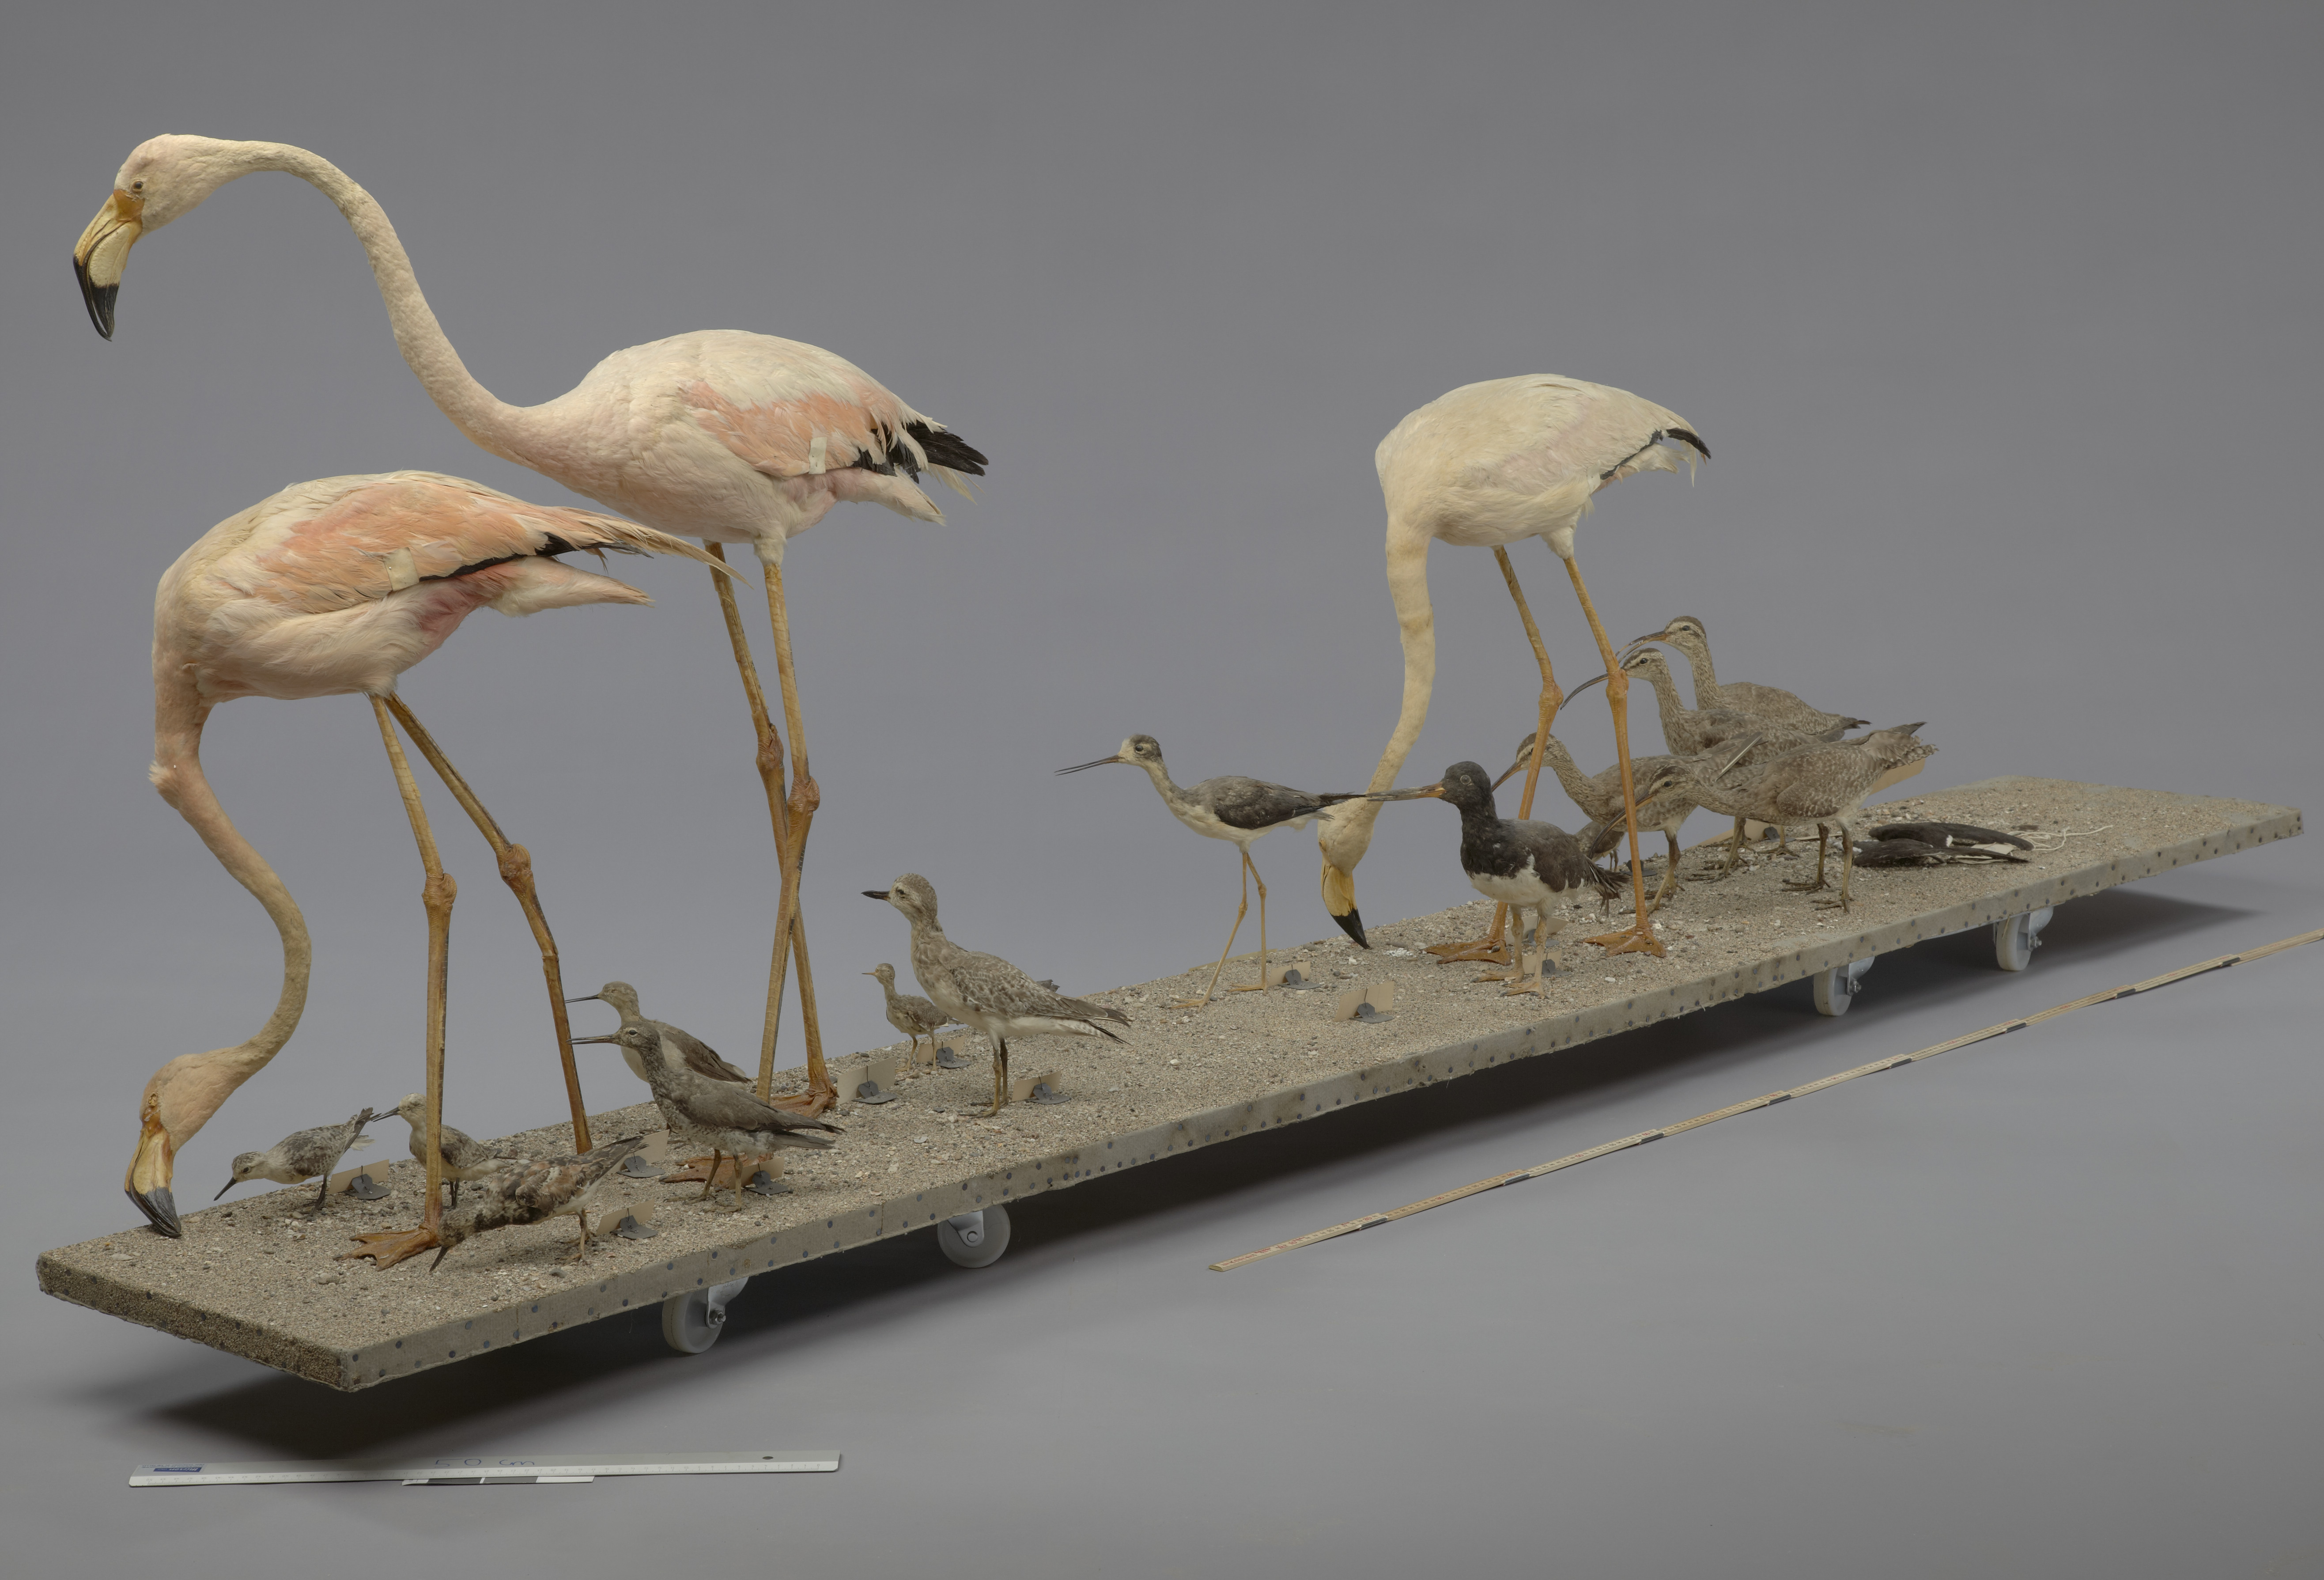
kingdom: Animalia
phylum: Chordata
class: Aves
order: Charadriiformes
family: Charadriidae
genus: Pluvialis
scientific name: Pluvialis squatarola
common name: Grey plover
